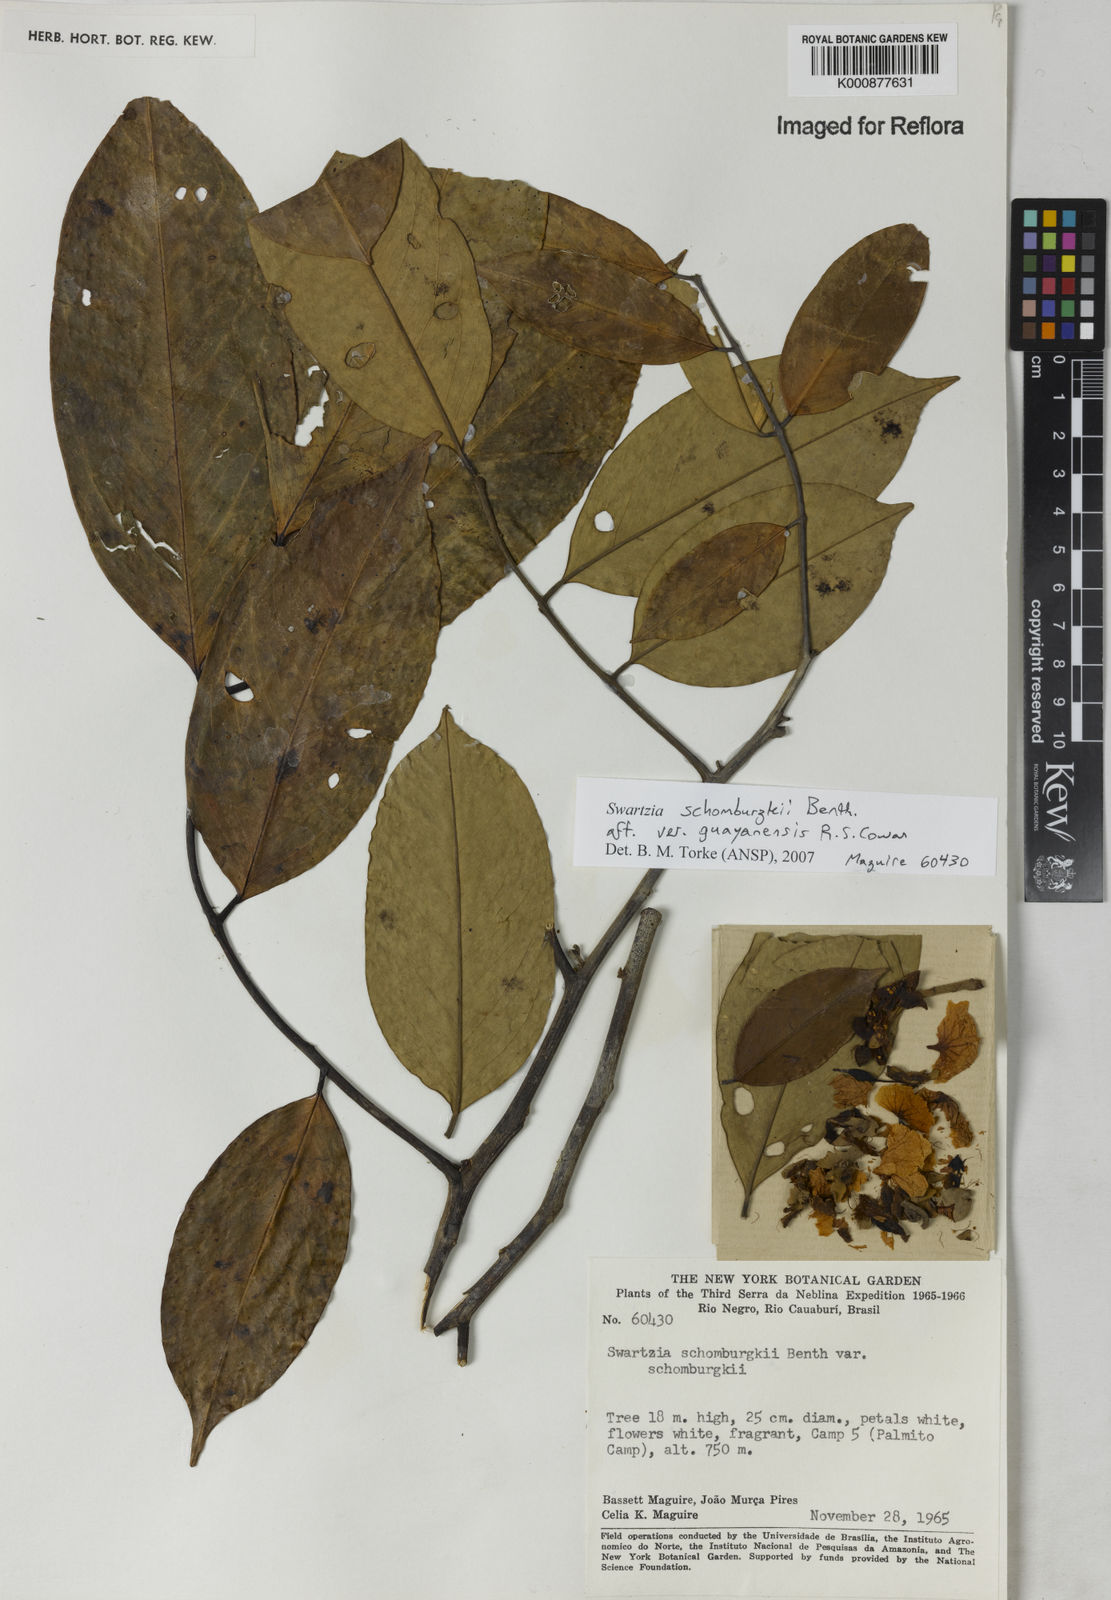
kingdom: Plantae
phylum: Tracheophyta
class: Magnoliopsida
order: Fabales
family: Fabaceae
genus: Swartzia
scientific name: Swartzia schomburgkii
